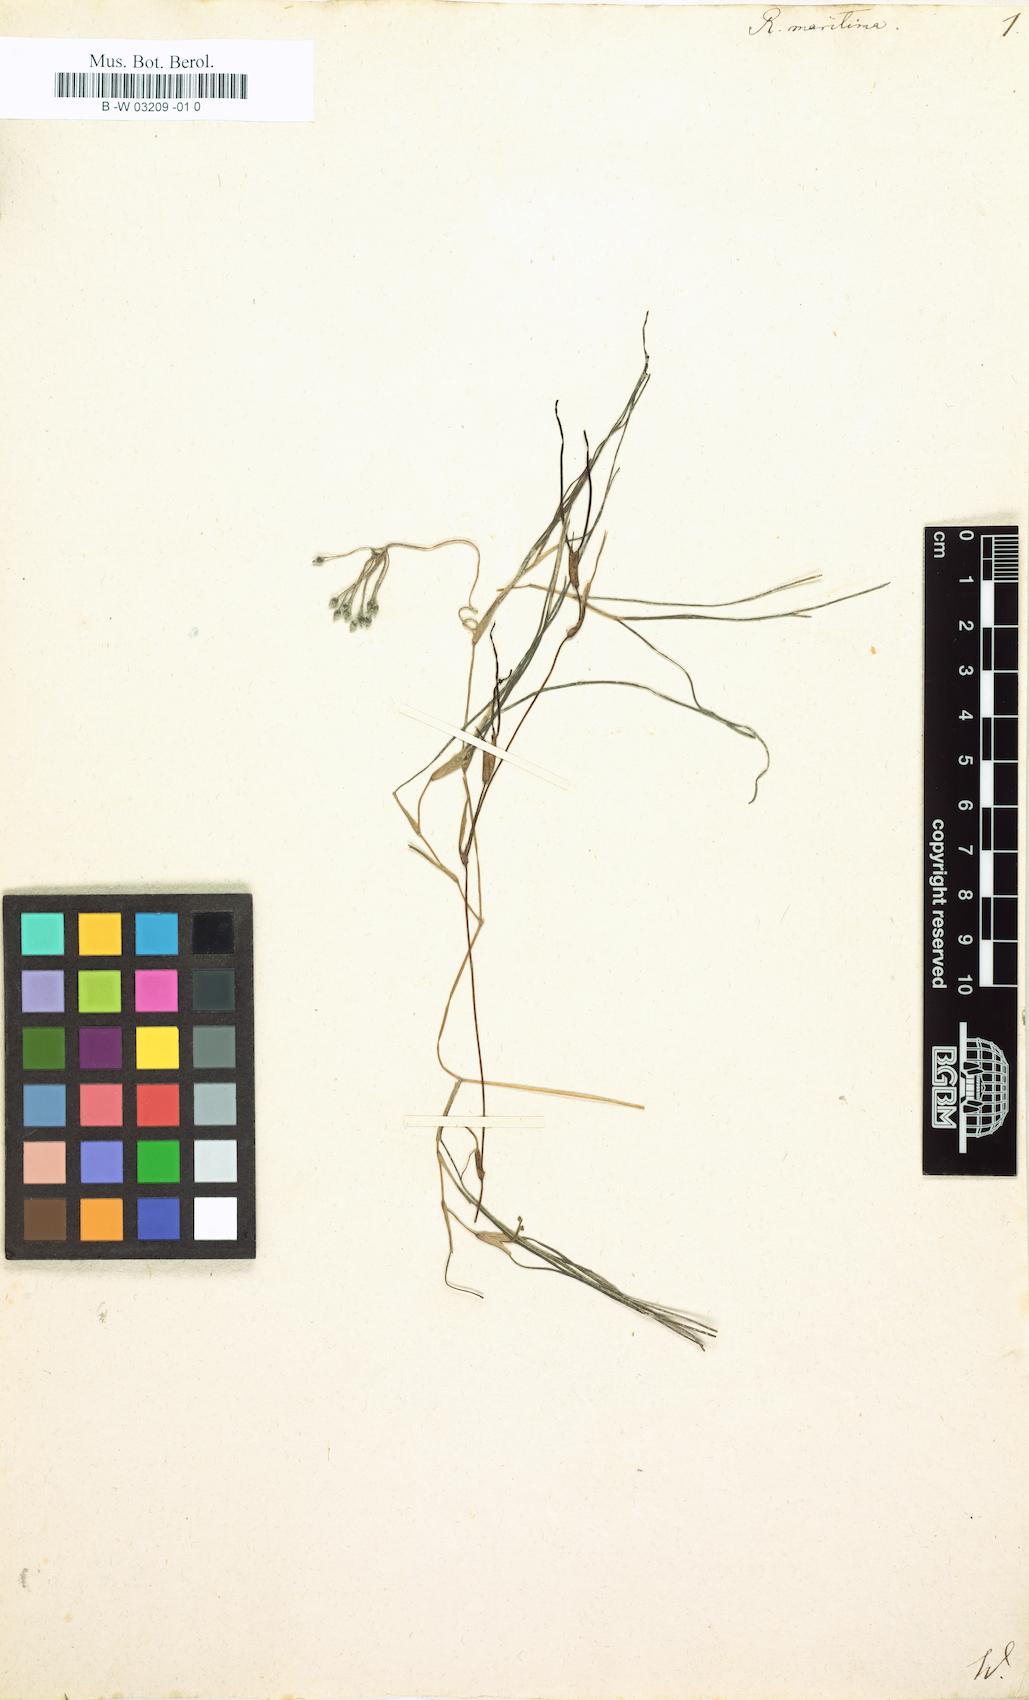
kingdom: Plantae
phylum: Tracheophyta
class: Liliopsida
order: Alismatales
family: Ruppiaceae
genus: Ruppia
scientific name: Ruppia maritima
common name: Beaked tasselweed
